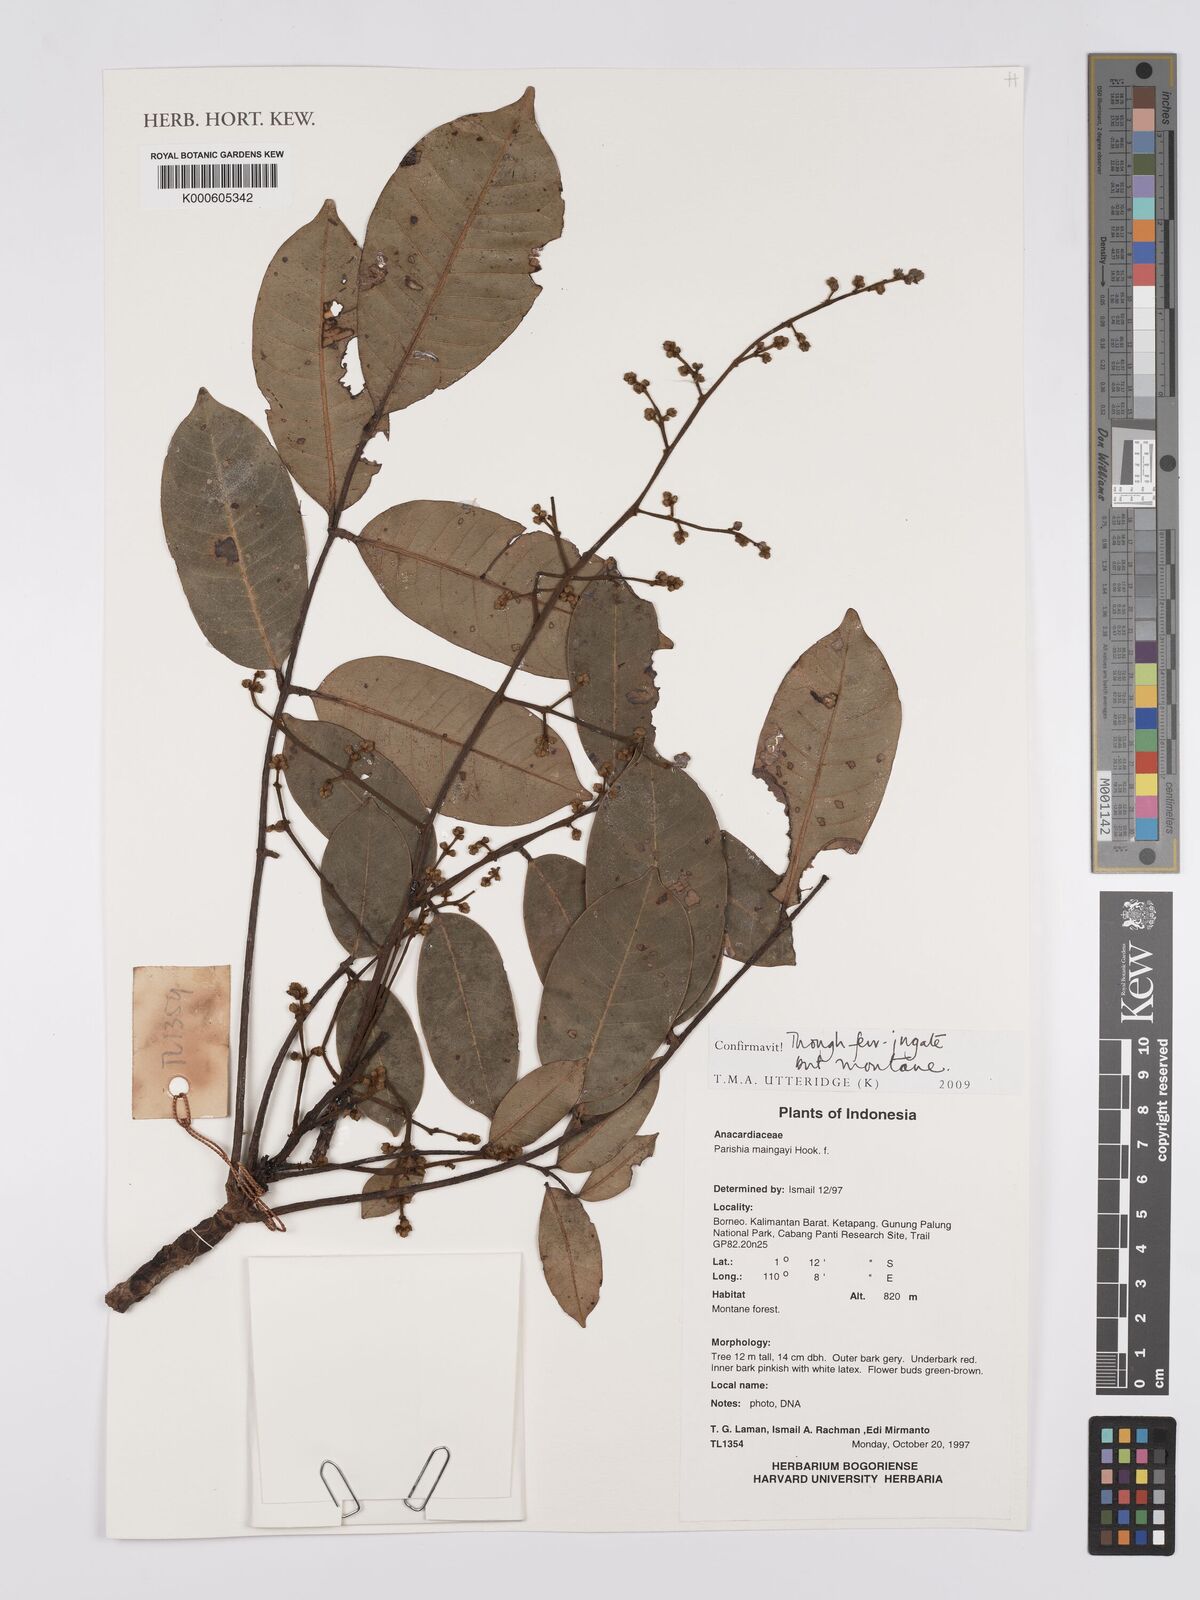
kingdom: Plantae
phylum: Tracheophyta
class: Magnoliopsida
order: Sapindales
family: Anacardiaceae
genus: Parishia
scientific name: Parishia maingayi
